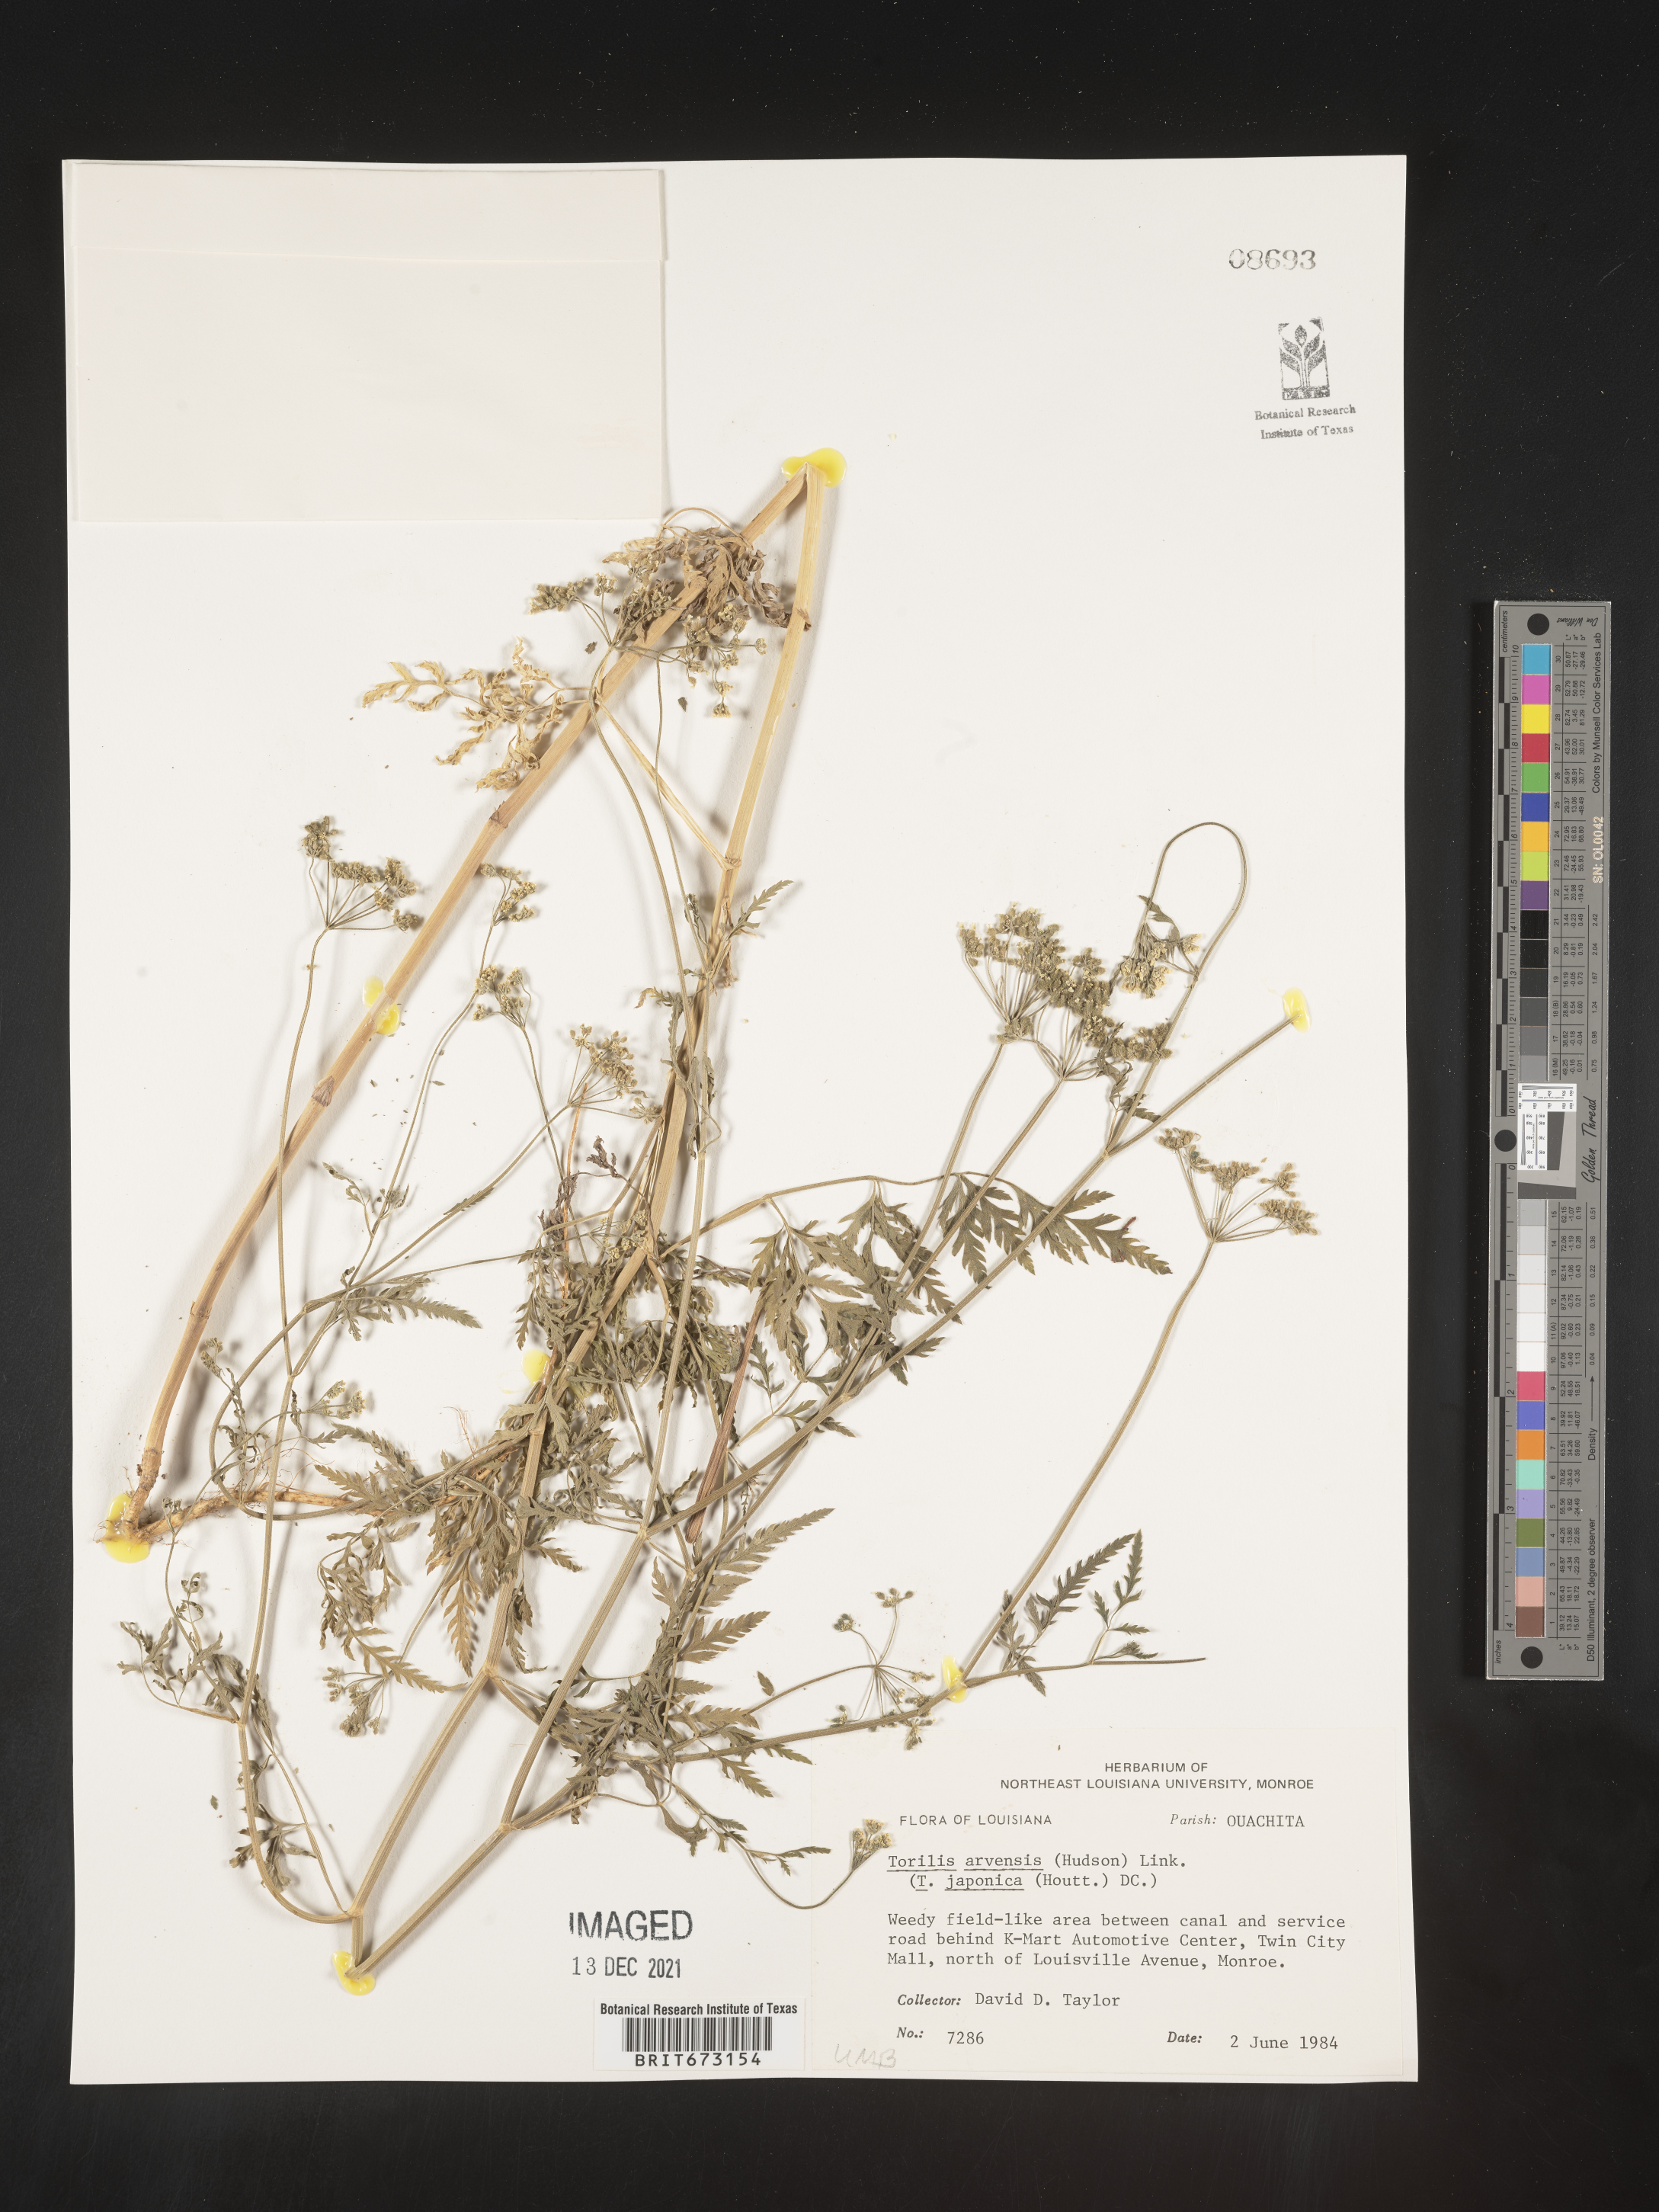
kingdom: Plantae
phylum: Tracheophyta
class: Magnoliopsida
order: Apiales
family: Apiaceae
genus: Torilis
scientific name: Torilis arvensis
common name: Spreading hedge-parsley
